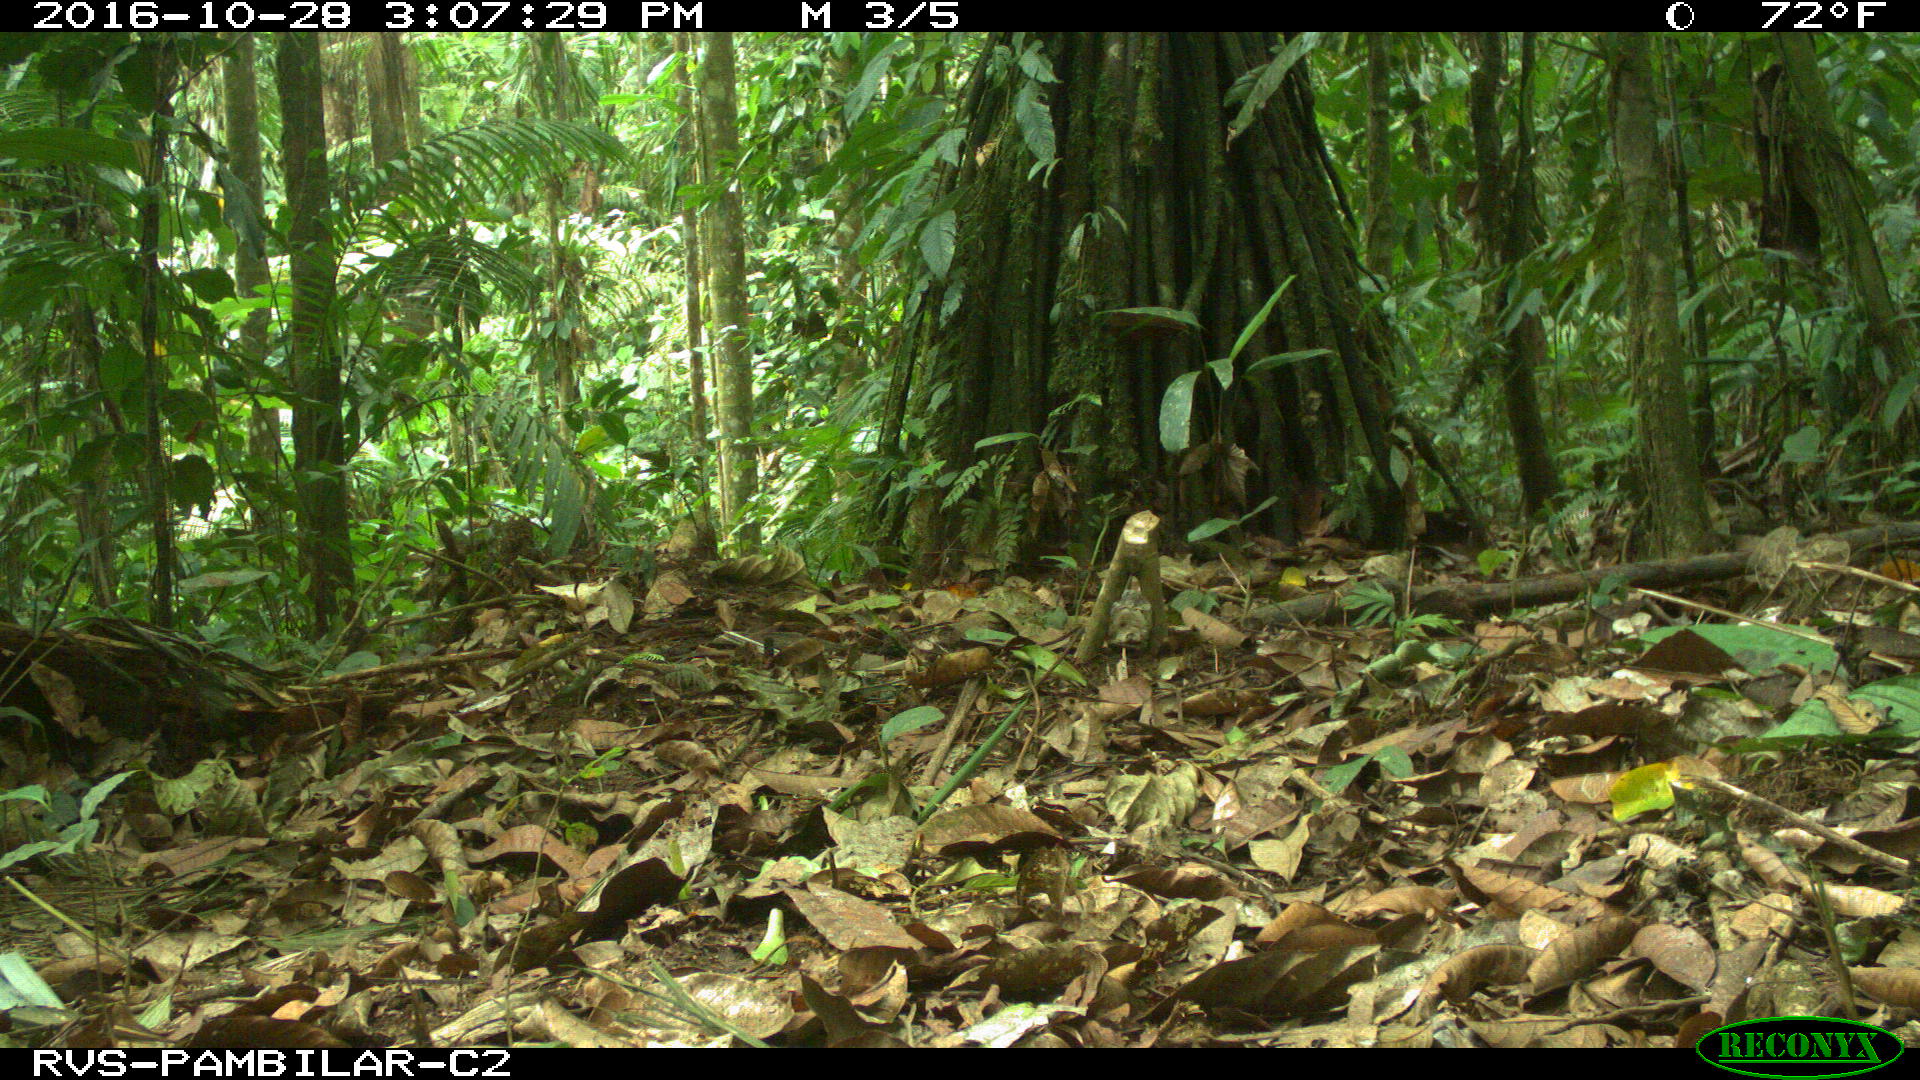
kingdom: Animalia
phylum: Chordata
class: Mammalia
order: Rodentia
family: Dasyproctidae
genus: Dasyprocta
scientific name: Dasyprocta punctata
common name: Central american agouti
